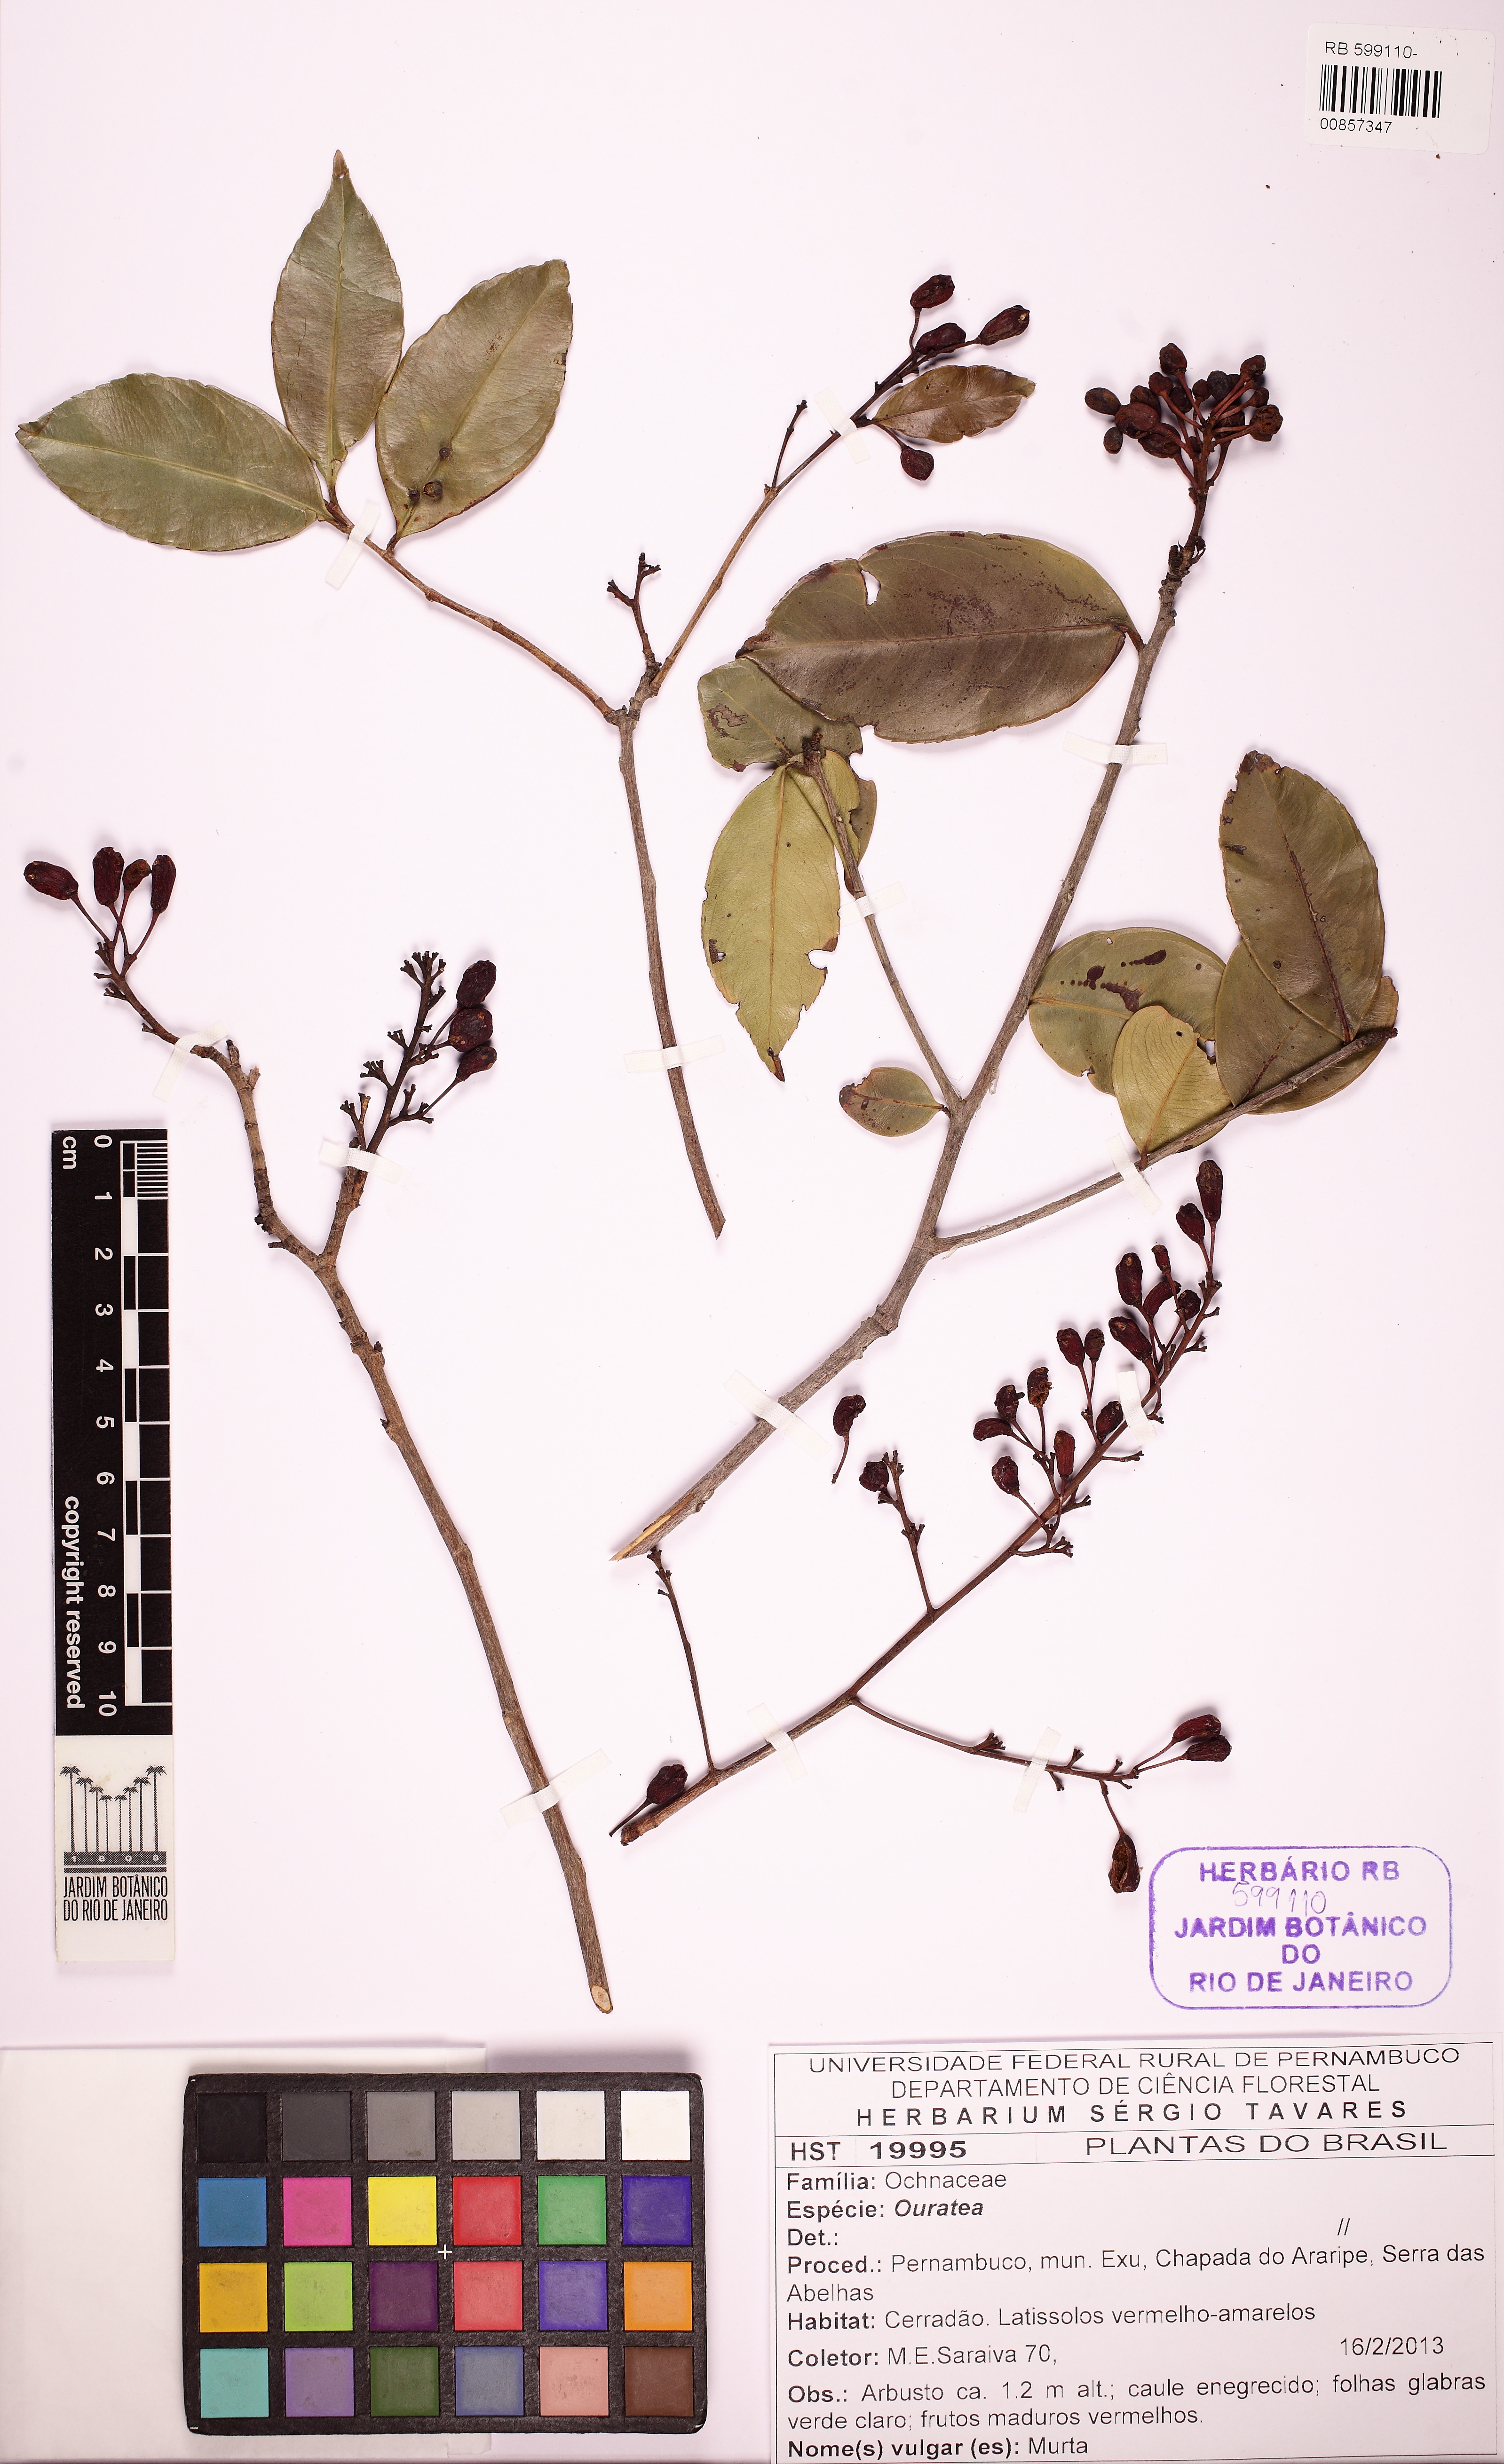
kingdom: Plantae
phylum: Tracheophyta
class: Magnoliopsida
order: Malpighiales
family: Ochnaceae
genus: Ouratea
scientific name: Ouratea
